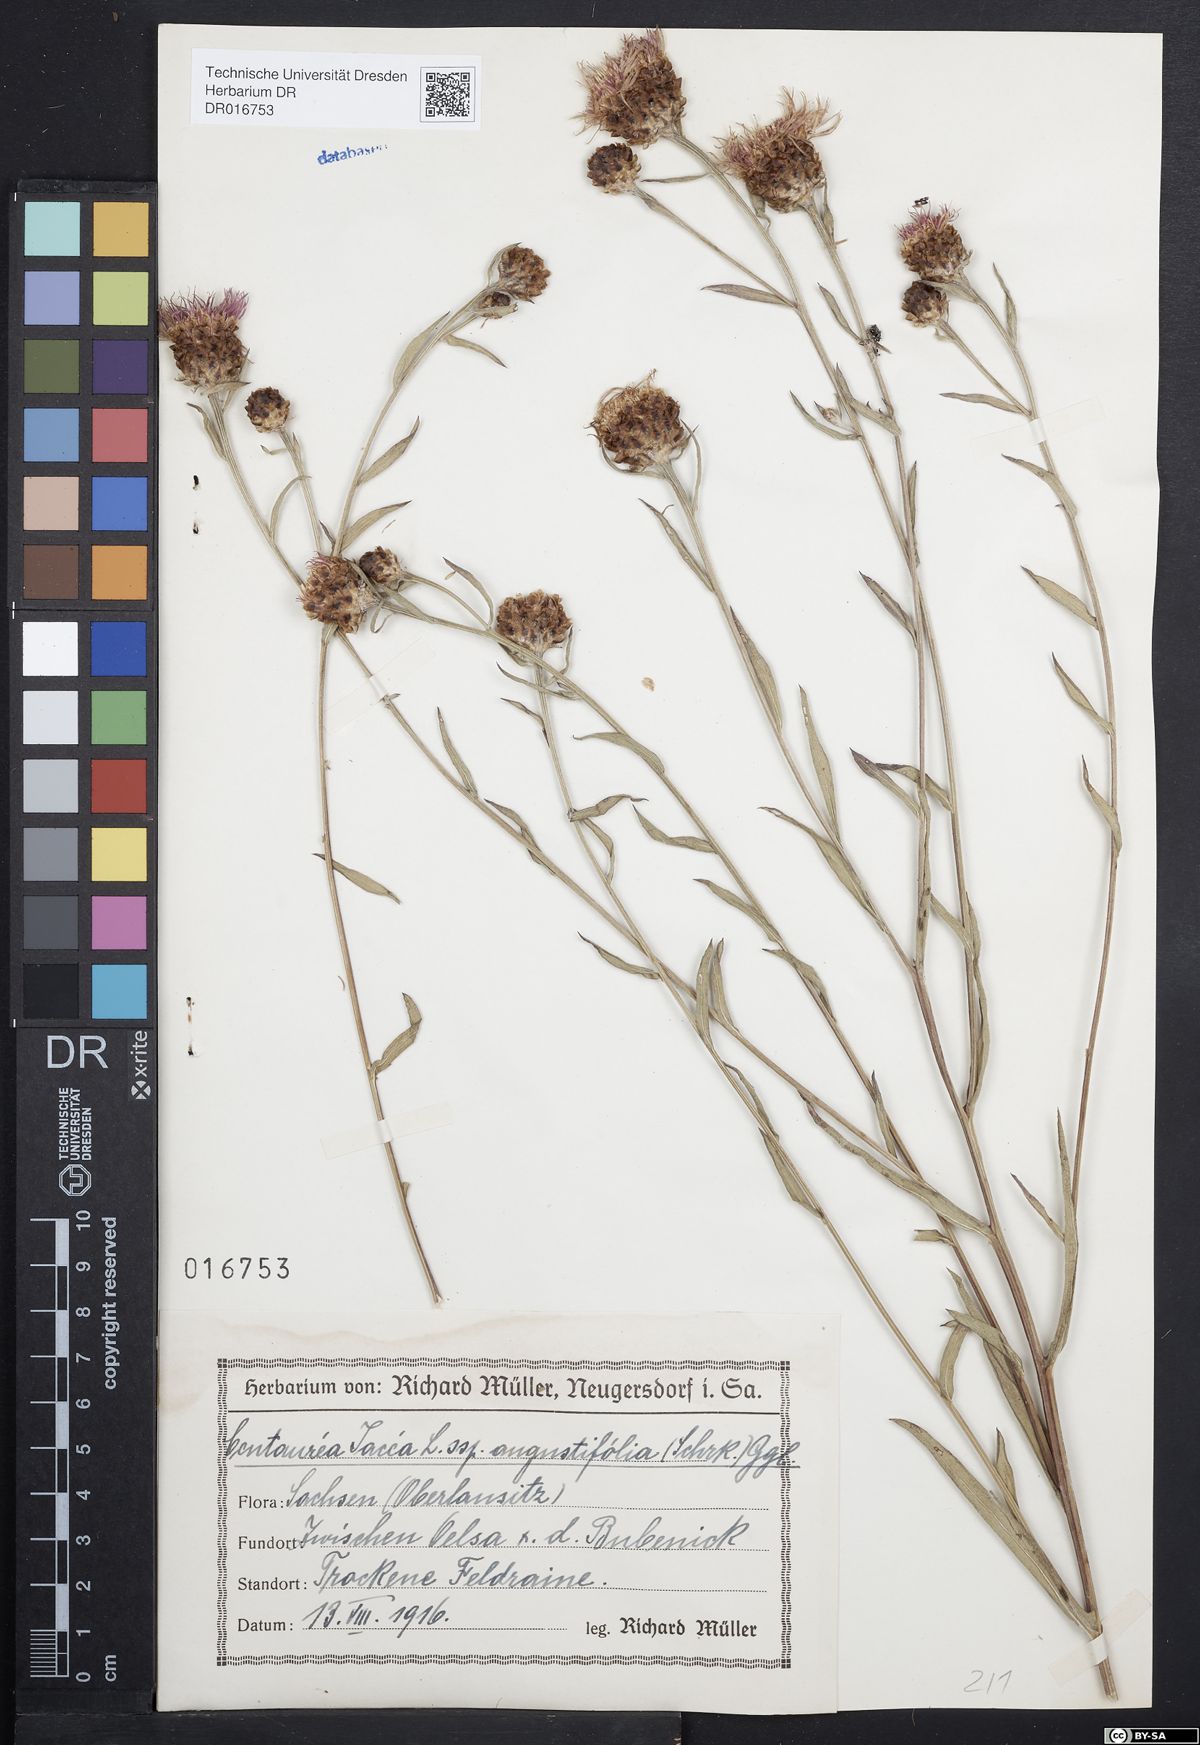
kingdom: Plantae
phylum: Tracheophyta
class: Magnoliopsida
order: Asterales
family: Asteraceae
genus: Centaurea
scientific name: Centaurea pannonica
